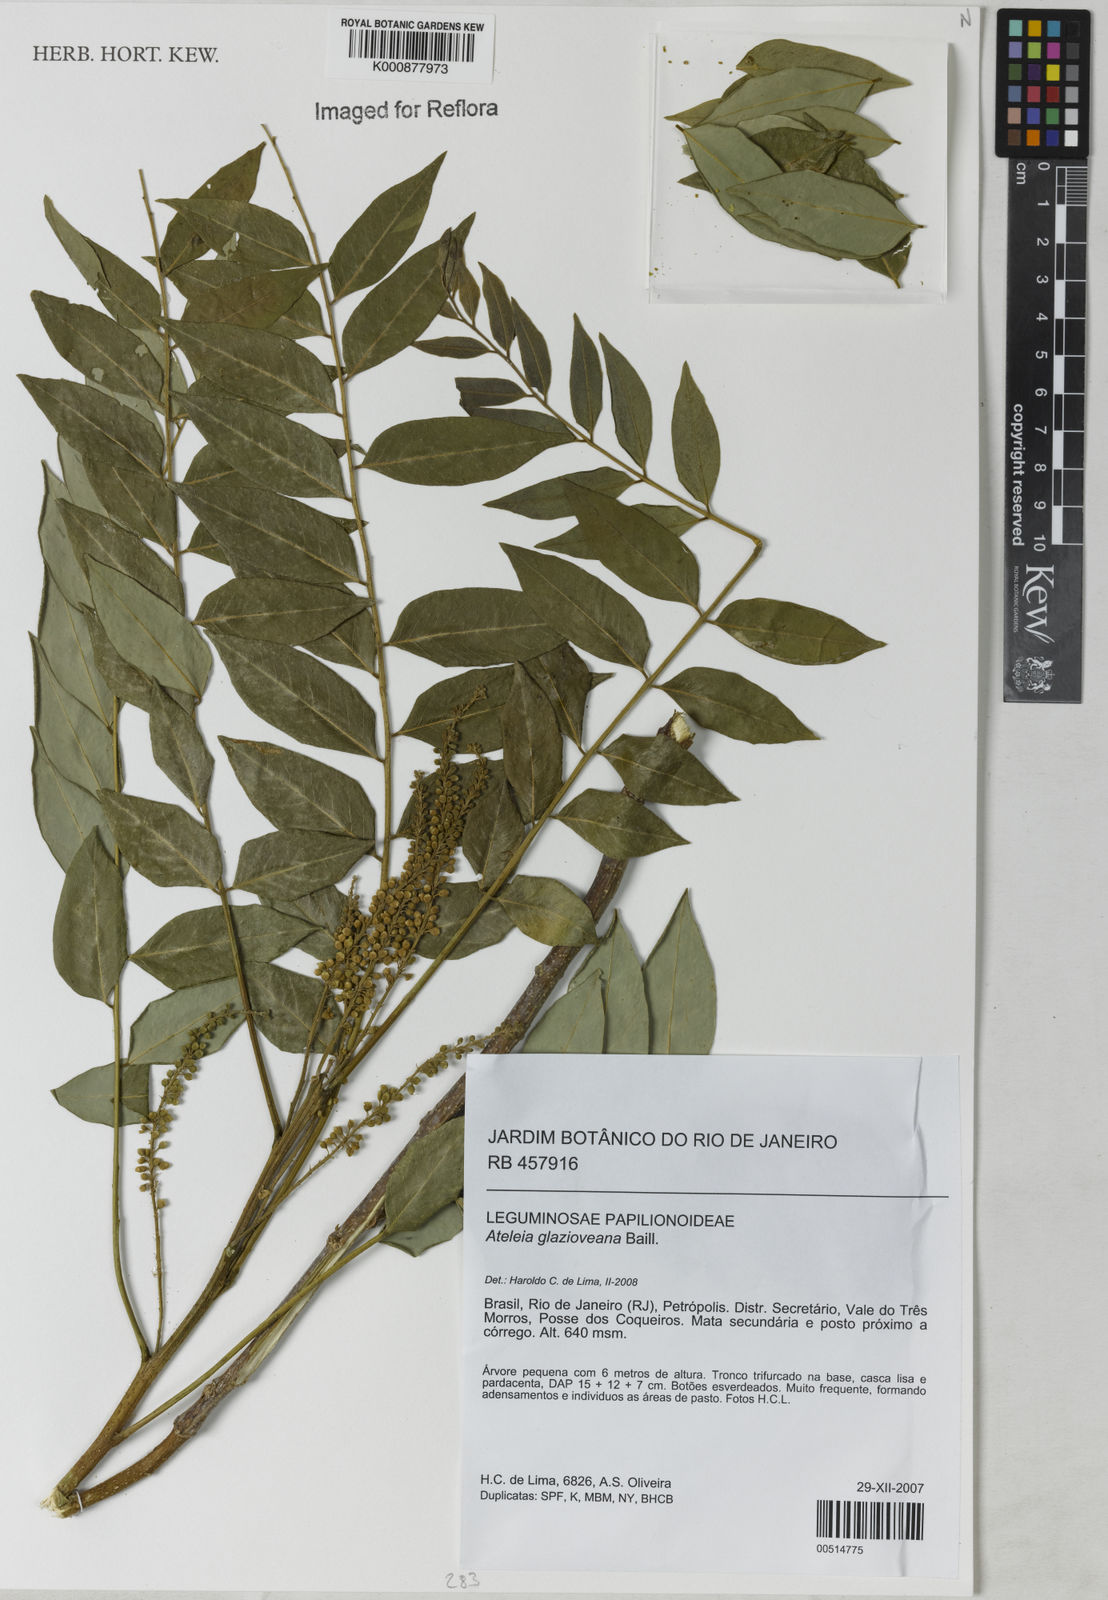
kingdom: Plantae
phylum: Tracheophyta
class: Magnoliopsida
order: Fabales
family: Fabaceae
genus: Ateleia
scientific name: Ateleia glazioveana
